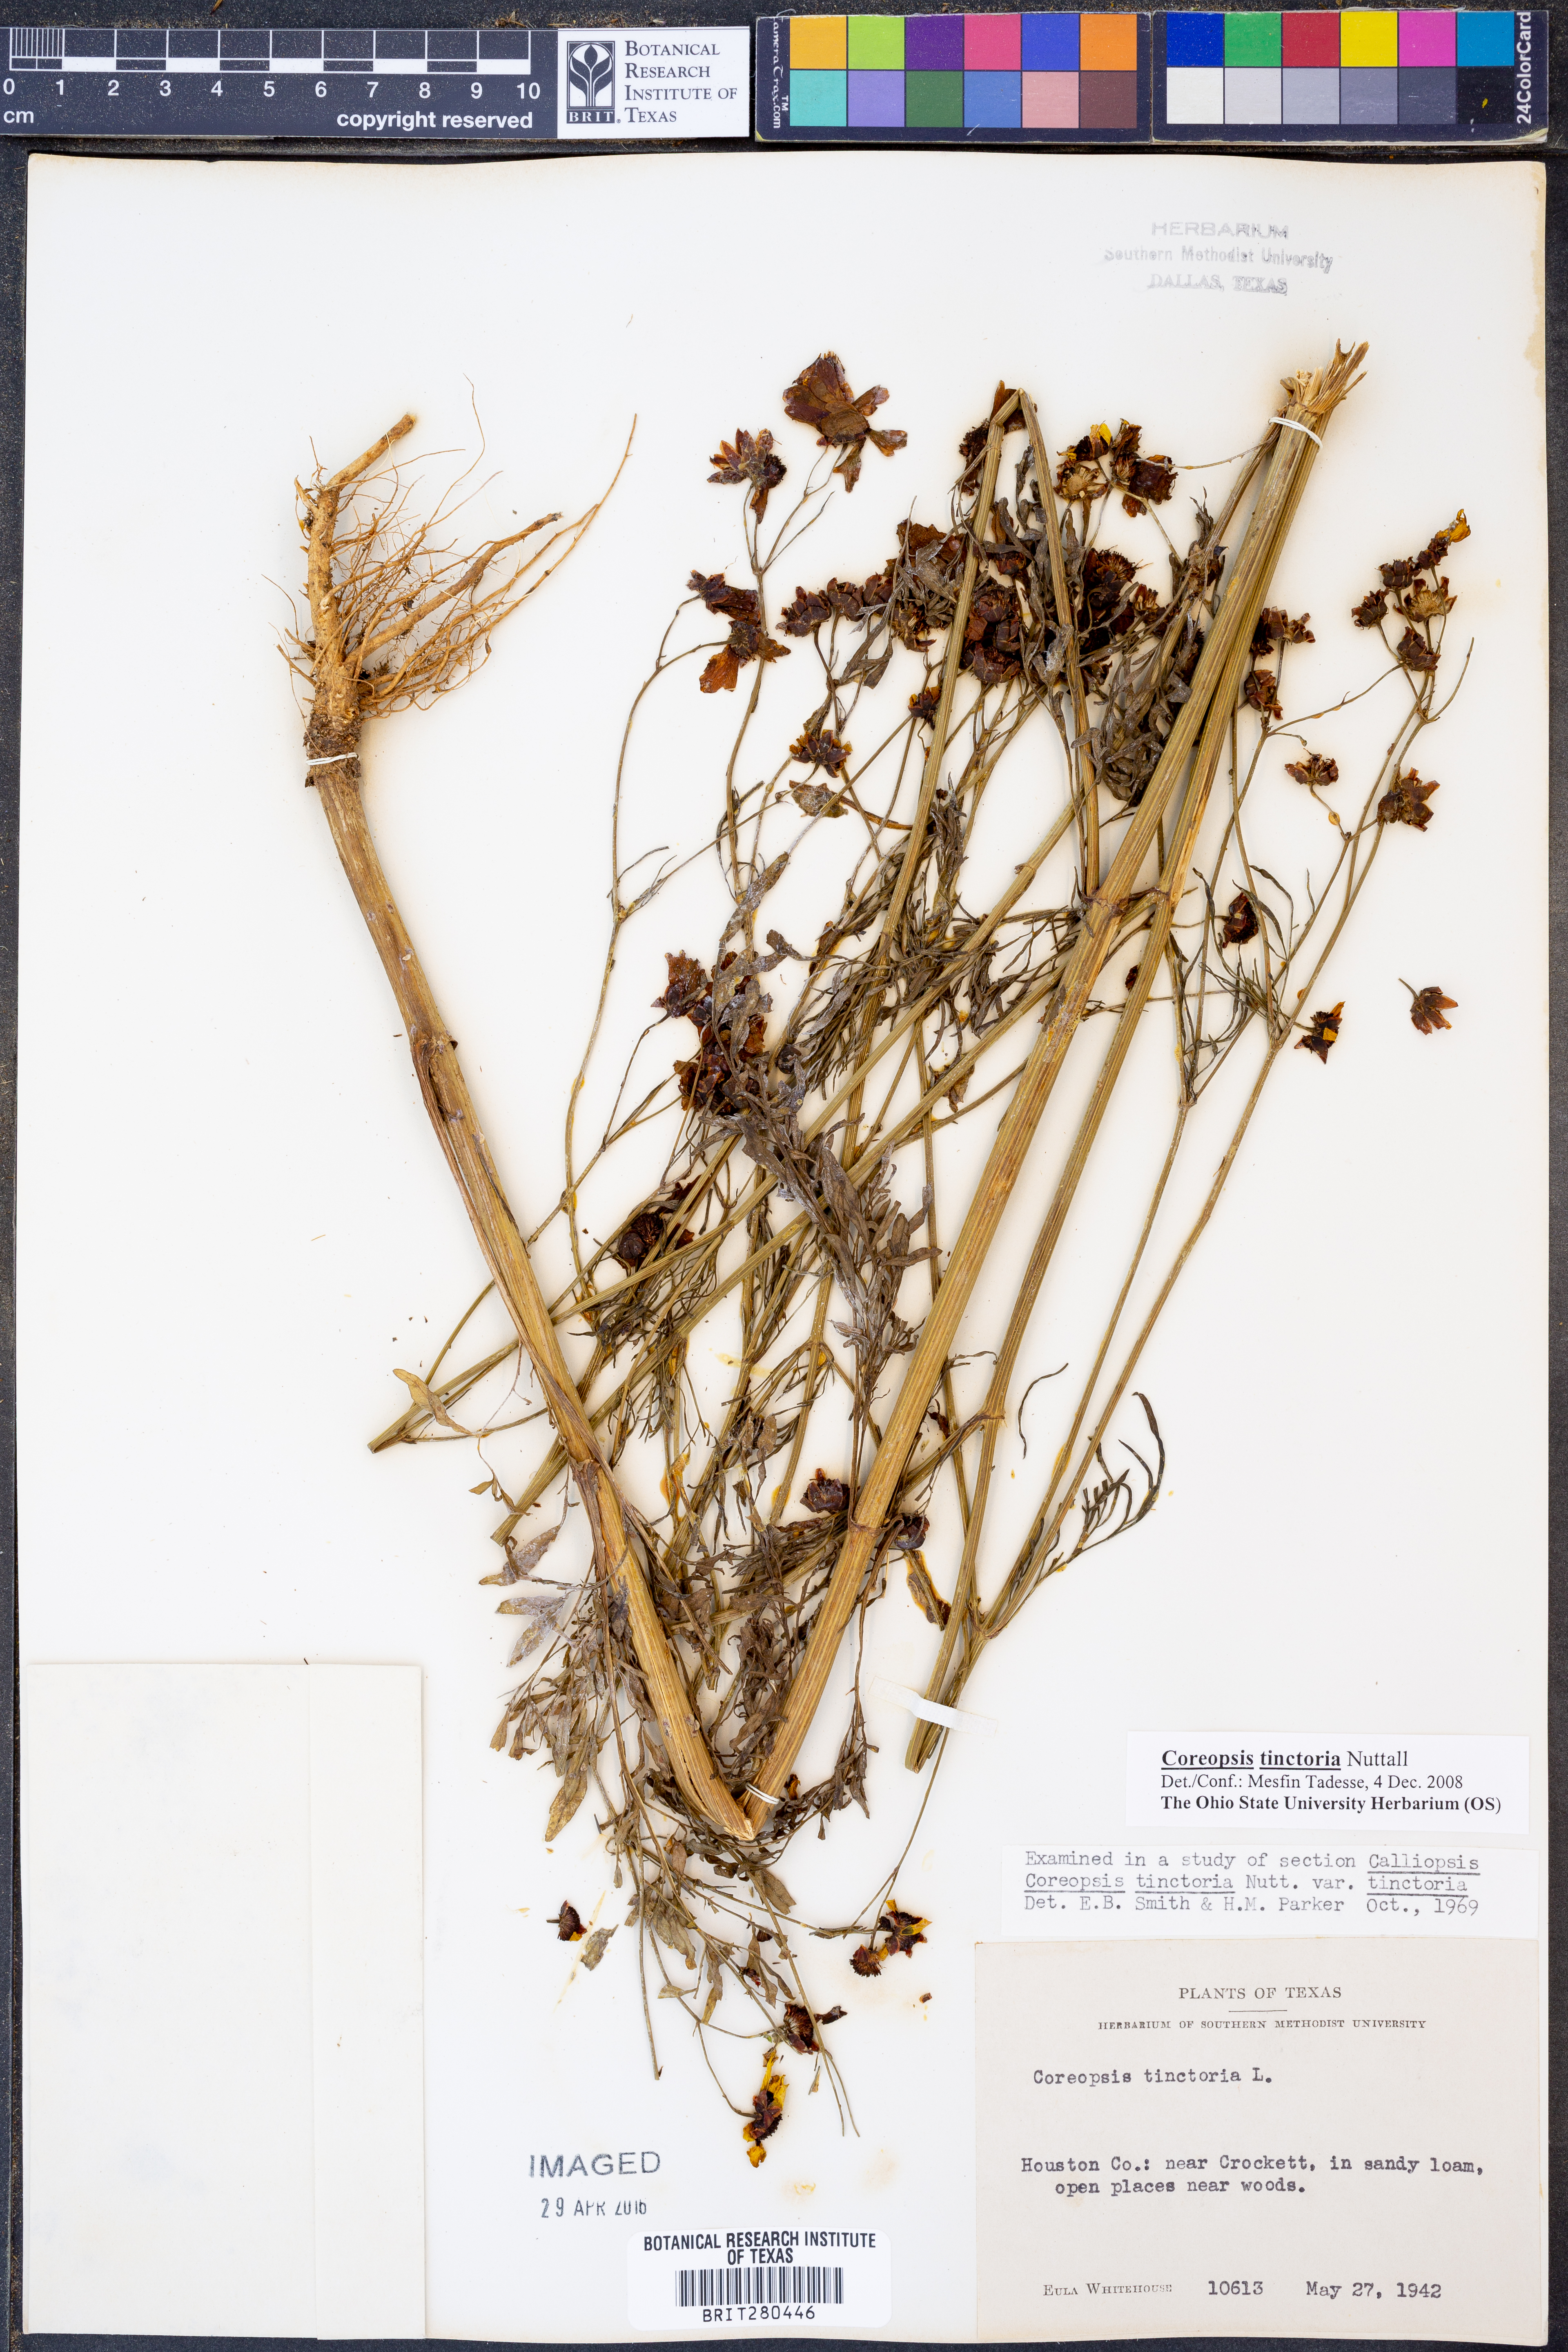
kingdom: Plantae
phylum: Tracheophyta
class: Magnoliopsida
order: Asterales
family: Asteraceae
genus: Coreopsis
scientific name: Coreopsis tinctoria
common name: Garden tickseed
